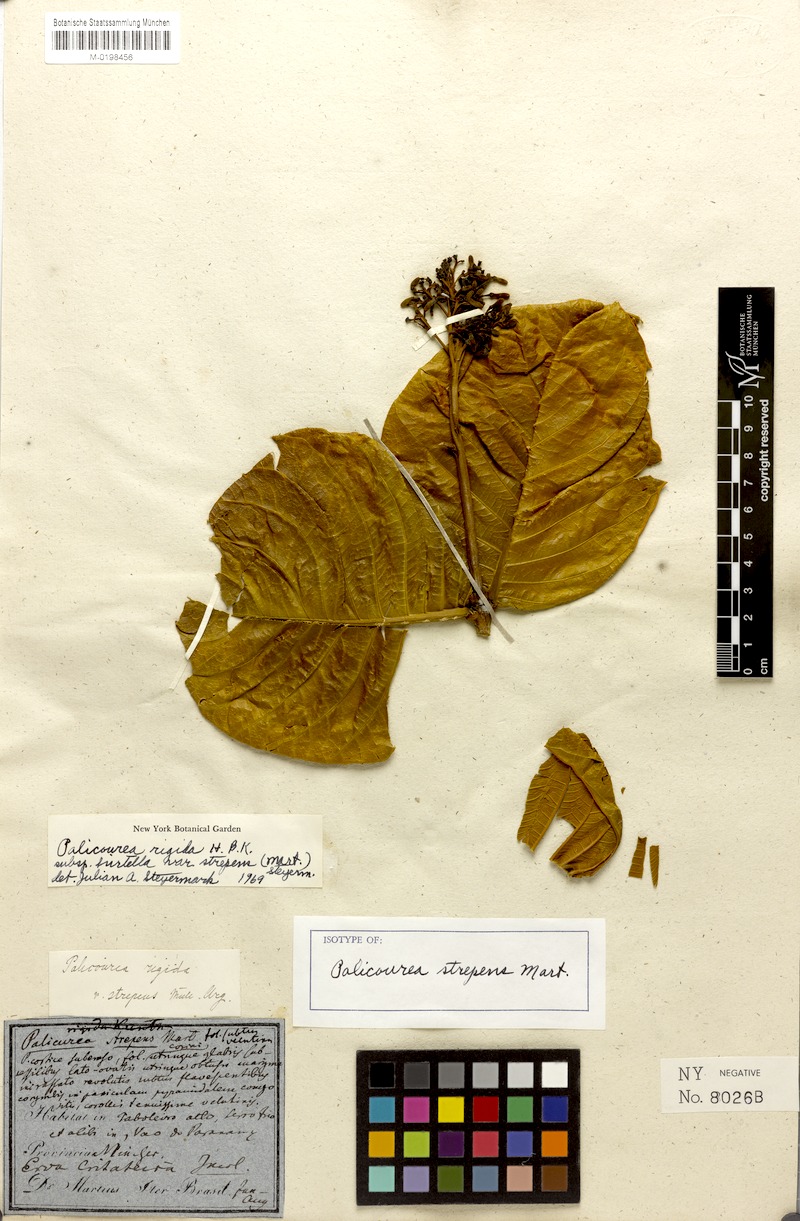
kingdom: Plantae
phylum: Tracheophyta
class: Magnoliopsida
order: Gentianales
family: Rubiaceae
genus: Palicourea
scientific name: Palicourea rigida
